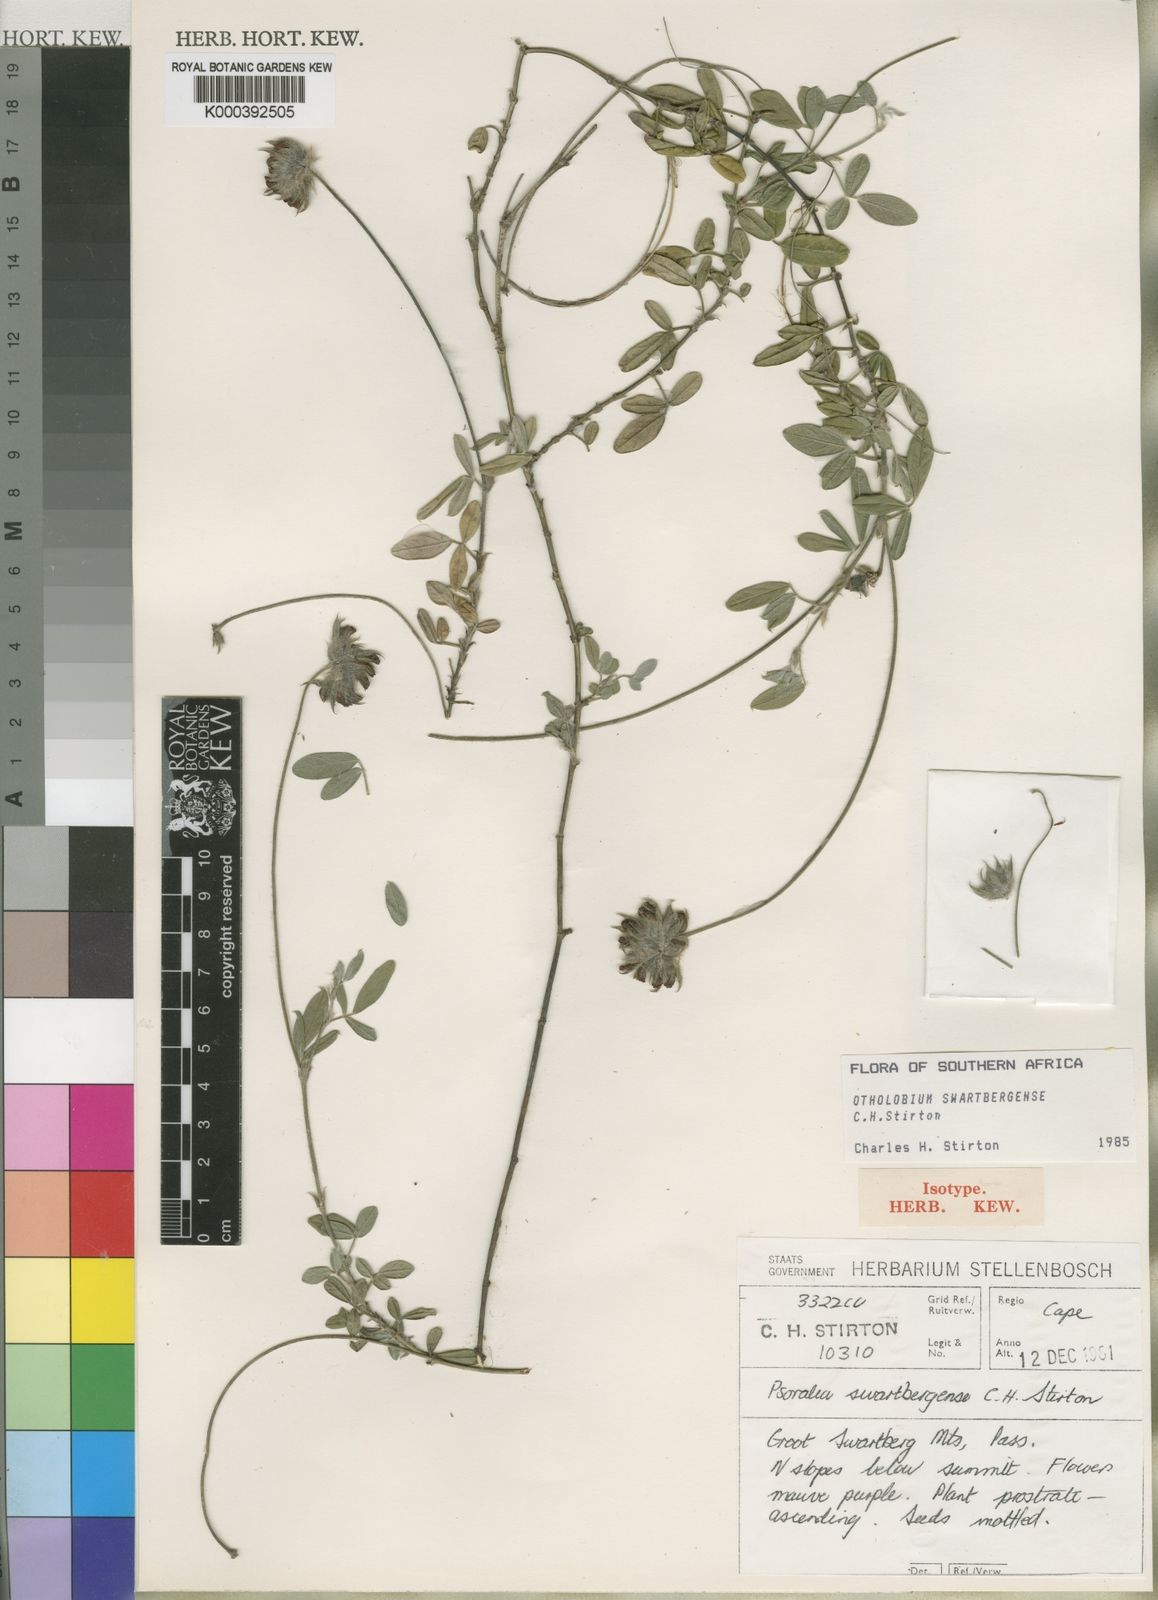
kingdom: Plantae
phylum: Tracheophyta
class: Magnoliopsida
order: Fabales
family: Fabaceae
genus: Psoralea
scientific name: Psoralea swartbergensis
